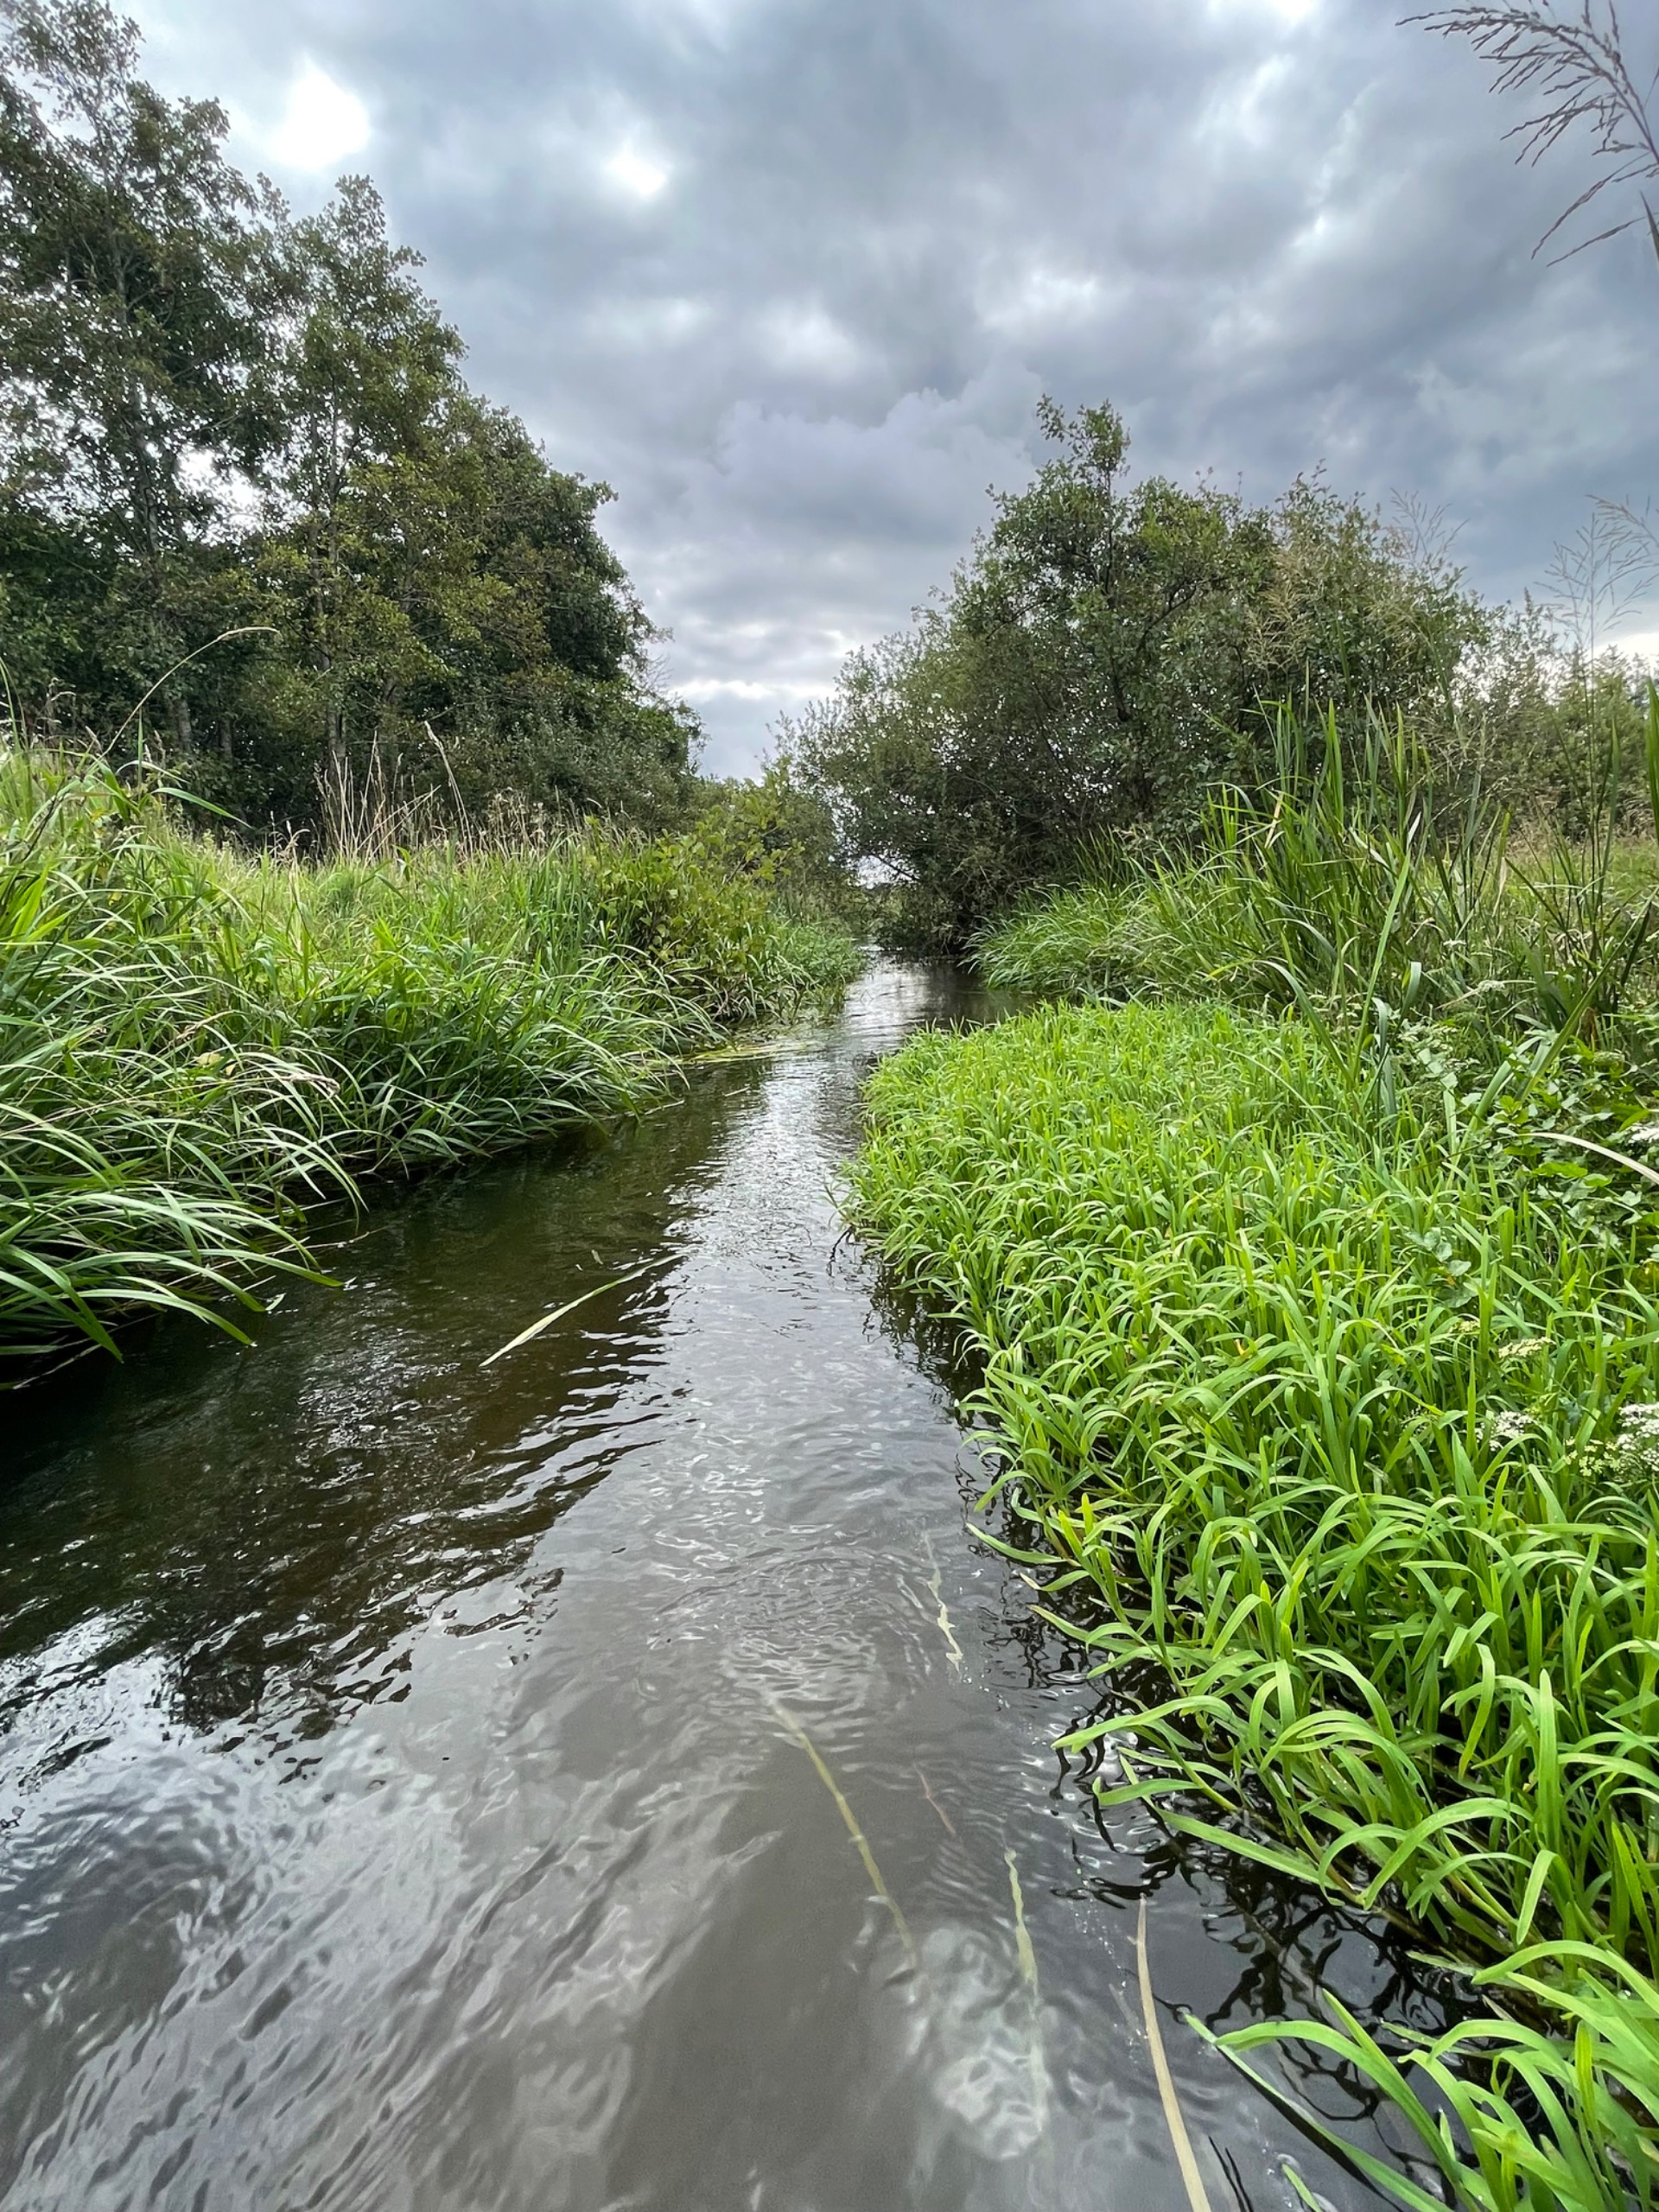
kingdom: Plantae
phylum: Tracheophyta
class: Liliopsida
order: Poales
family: Poaceae
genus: Glyceria
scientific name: Glyceria maxima
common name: Høj sødgræs
